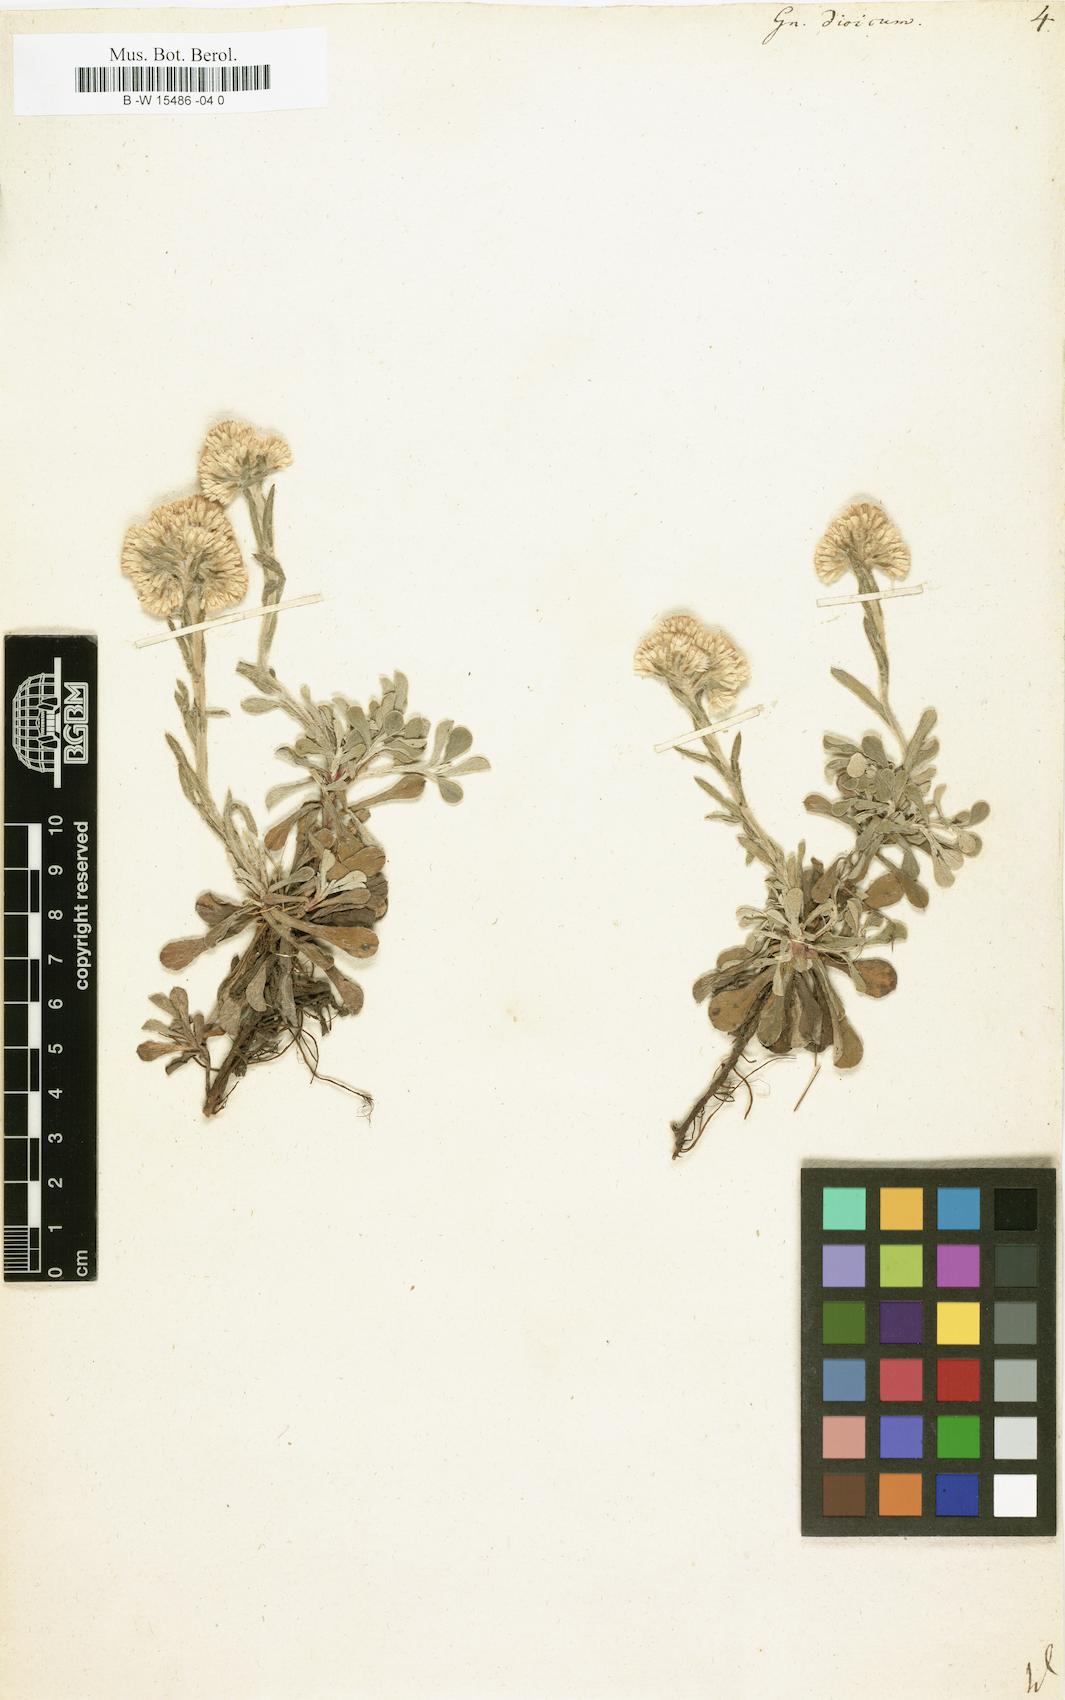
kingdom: Plantae
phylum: Tracheophyta
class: Magnoliopsida
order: Asterales
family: Asteraceae
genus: Antennaria
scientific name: Antennaria dioica
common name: Mountain everlasting
